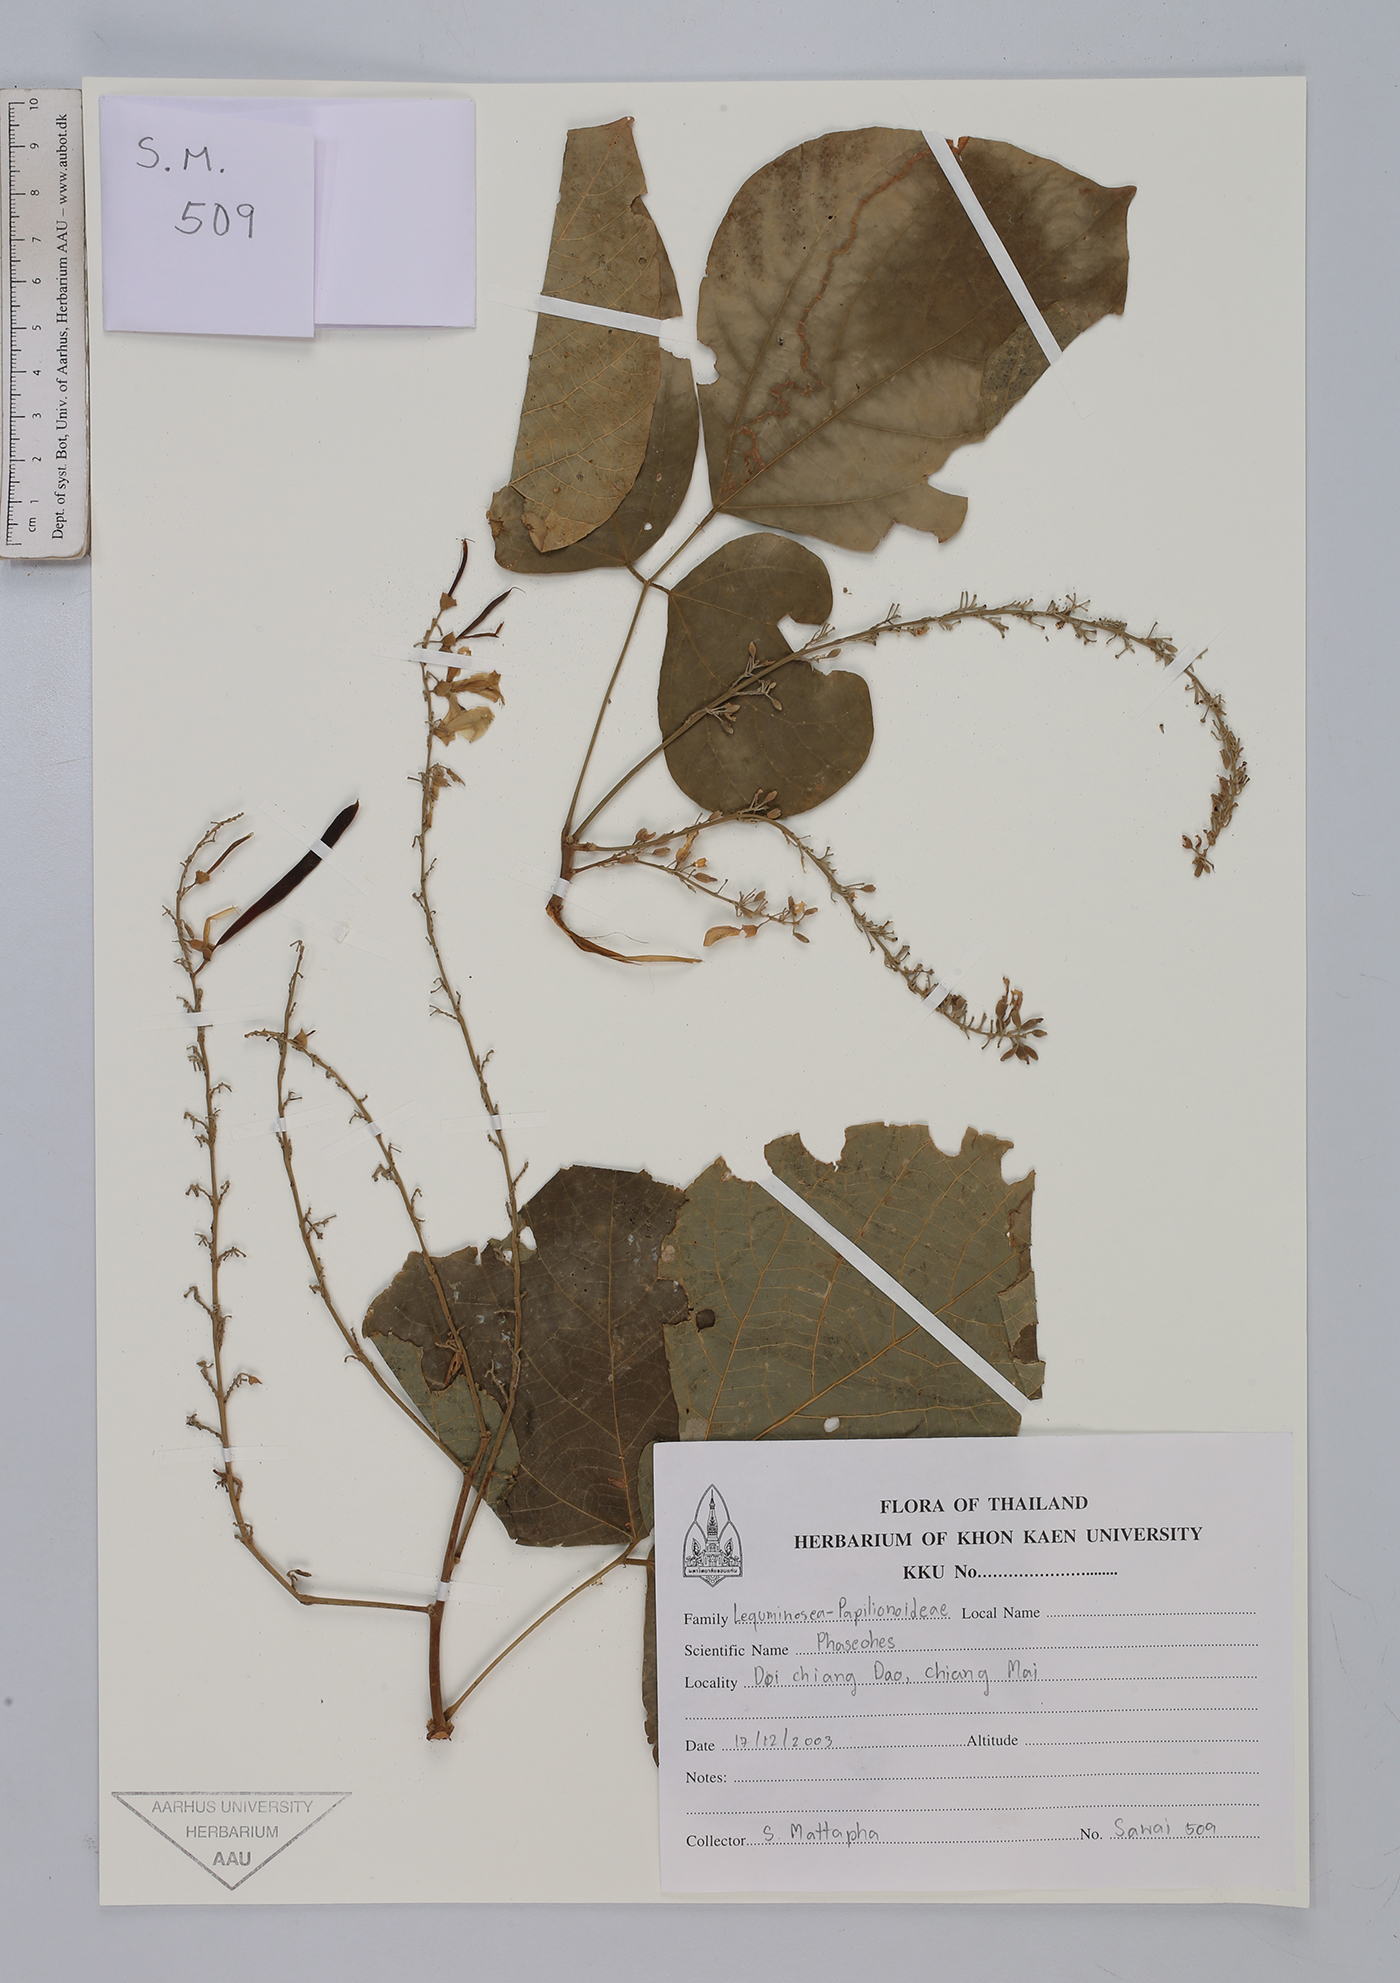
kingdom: Plantae
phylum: Tracheophyta
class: Magnoliopsida
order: Fabales
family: Fabaceae
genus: Phaseolus
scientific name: Phaseolus
